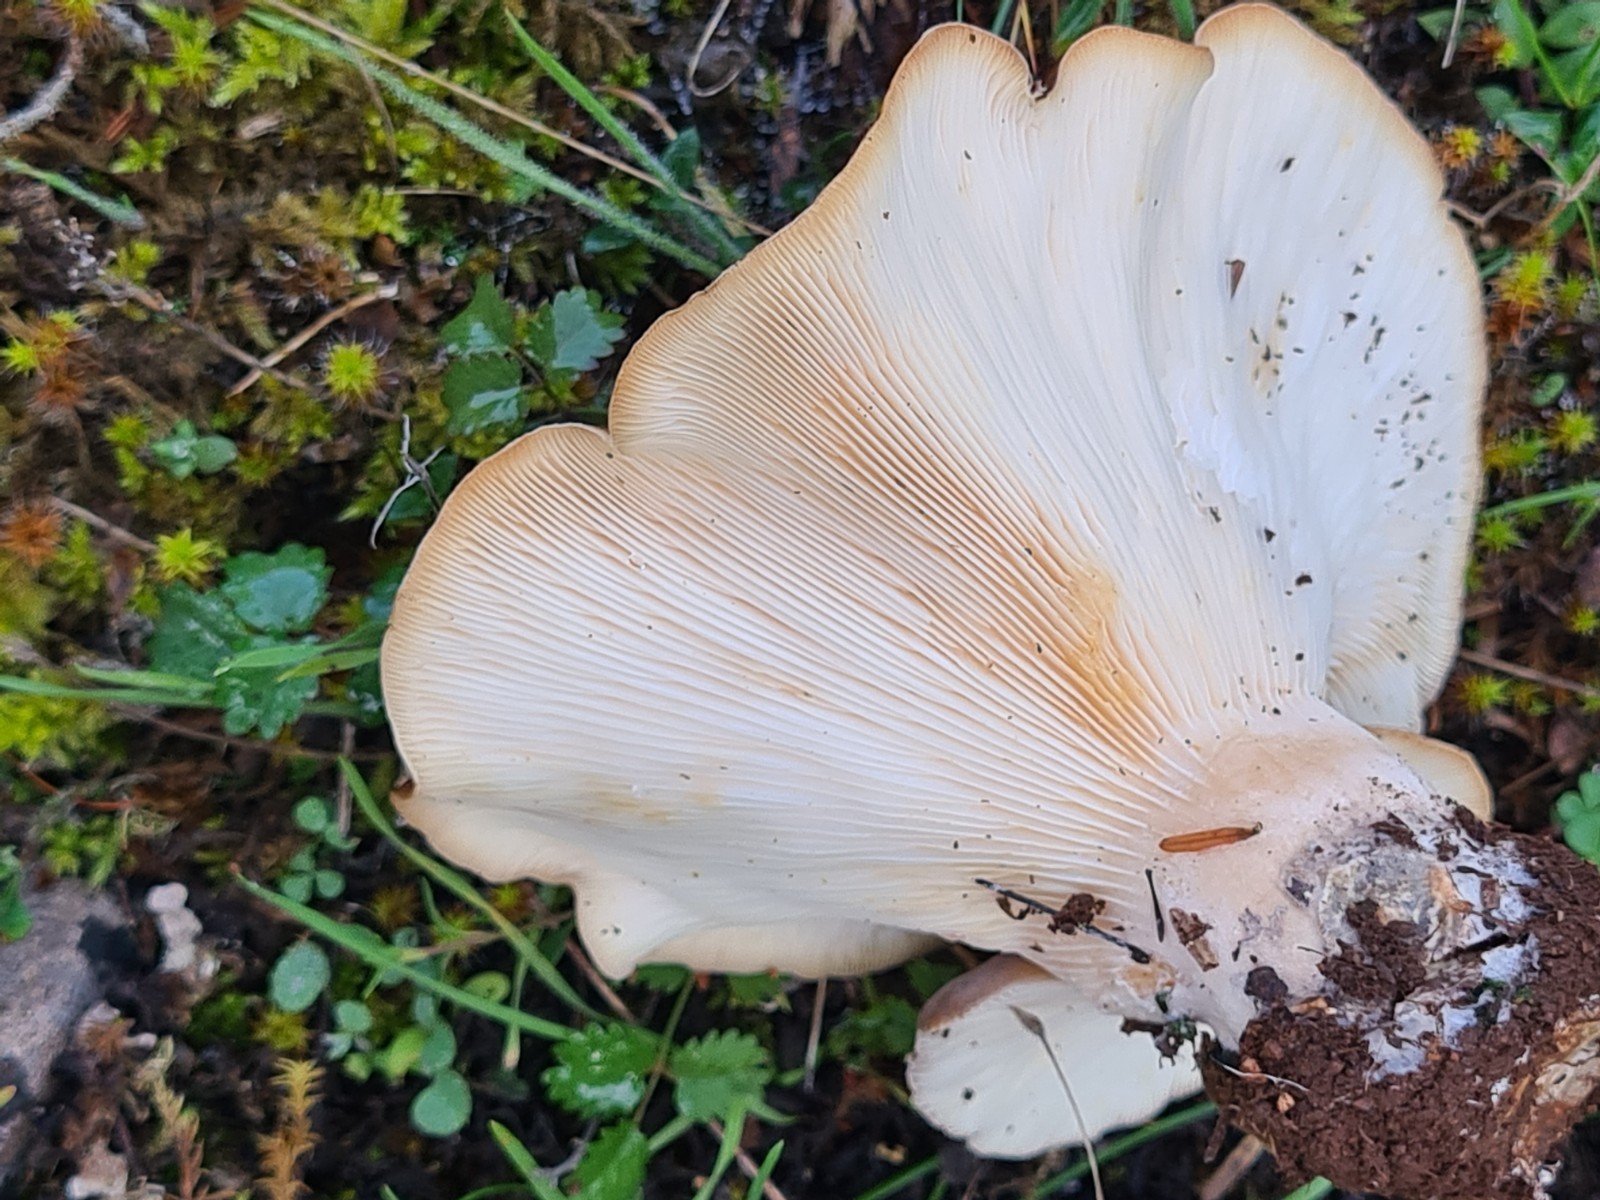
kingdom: Fungi
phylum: Basidiomycota
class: Agaricomycetes
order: Agaricales
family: Pleurotaceae
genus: Hohenbuehelia
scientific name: Hohenbuehelia petaloides
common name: stor filthat
